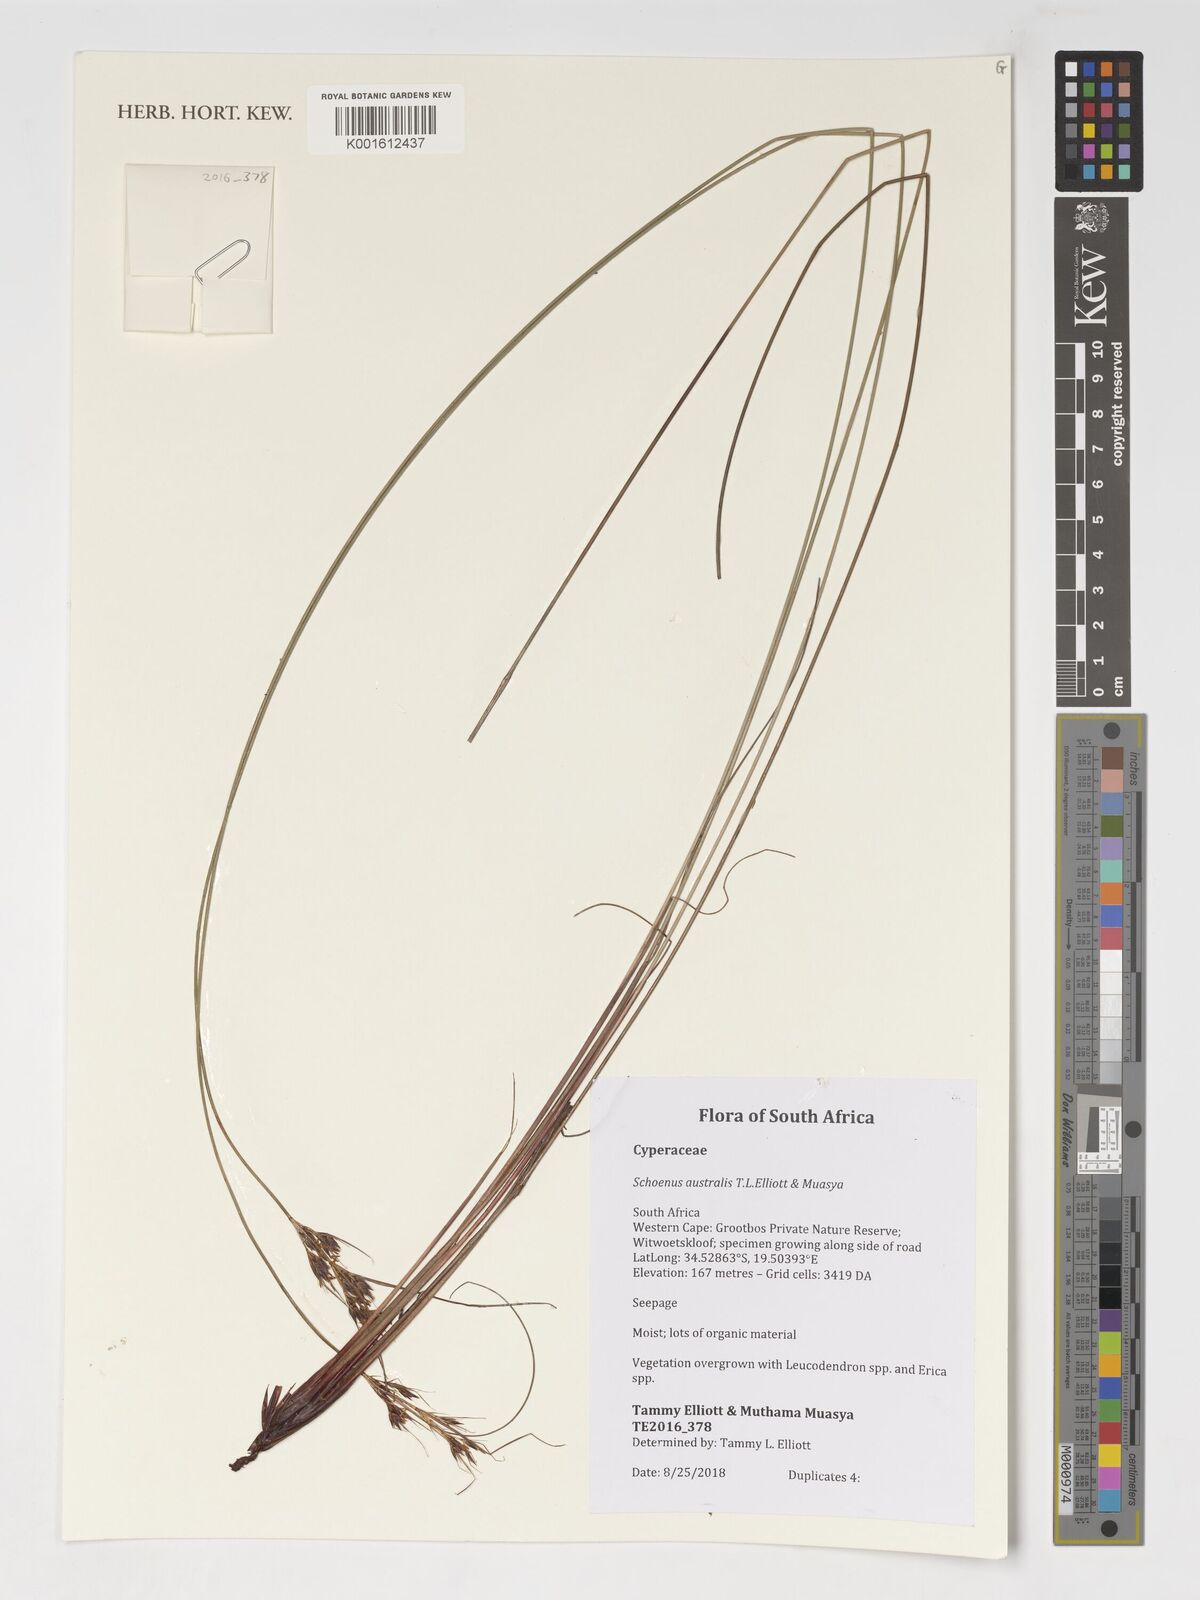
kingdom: Plantae
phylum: Tracheophyta
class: Liliopsida
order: Poales
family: Cyperaceae
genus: Schoenus
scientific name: Schoenus
